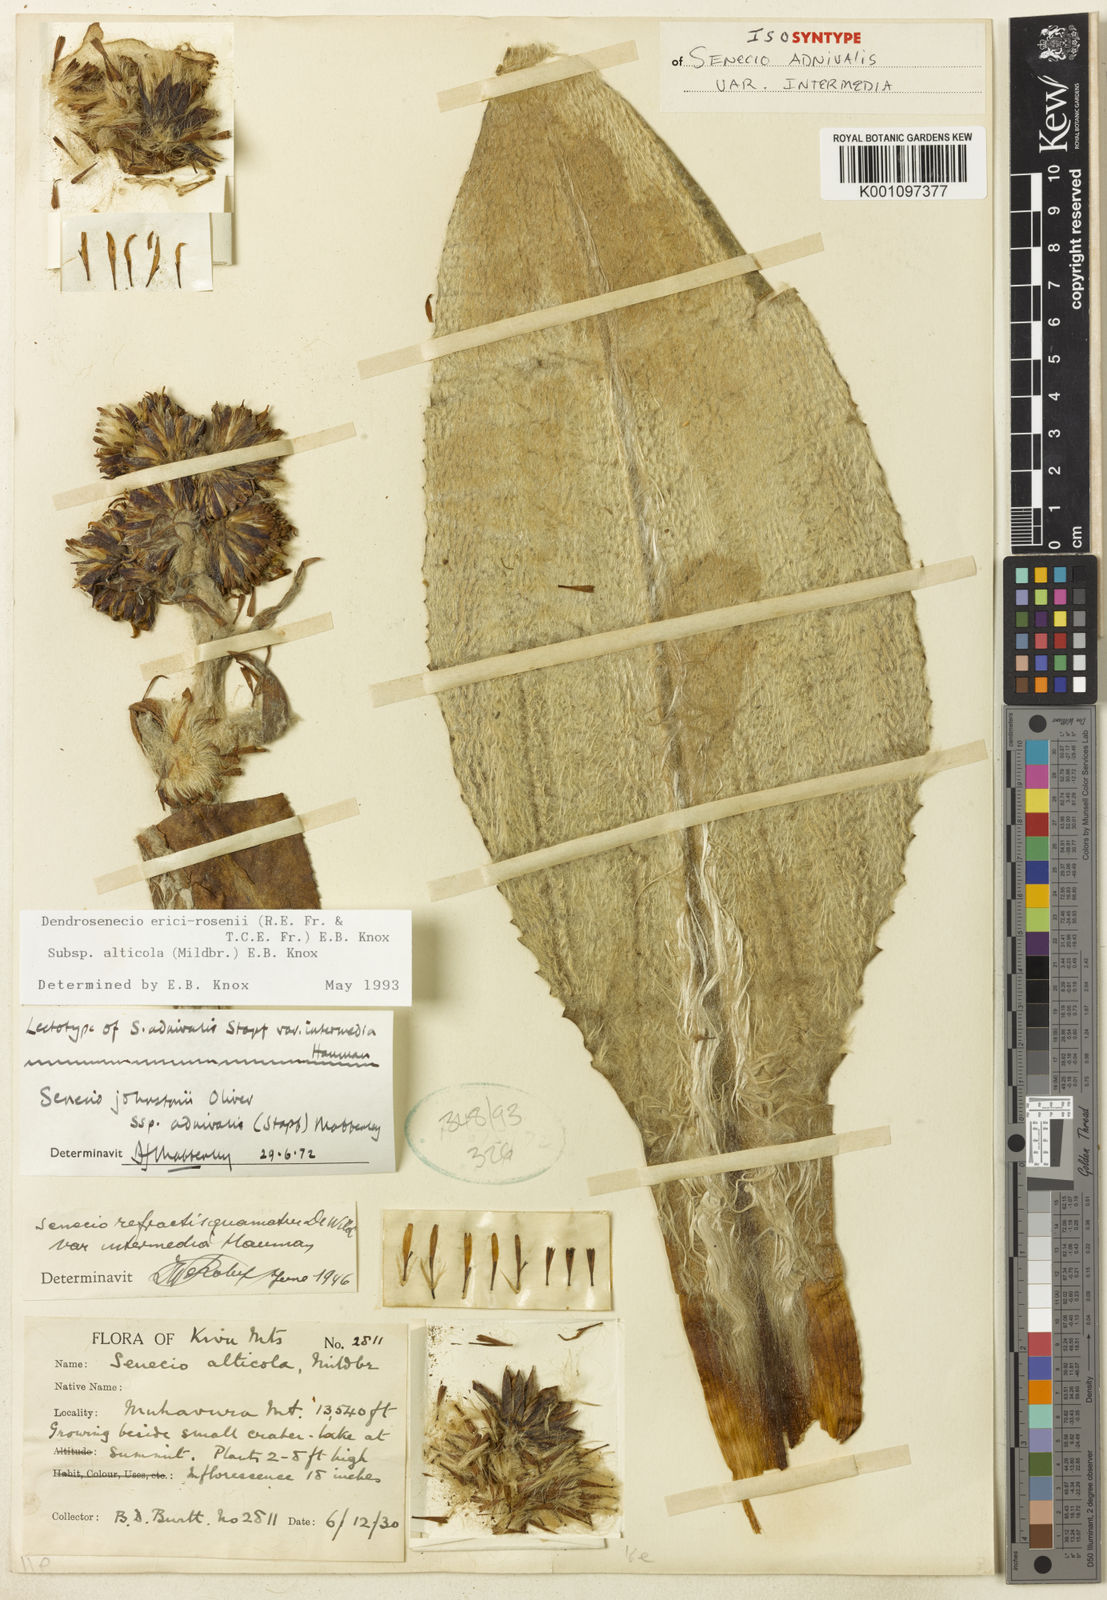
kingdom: Plantae
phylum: Tracheophyta
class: Magnoliopsida
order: Asterales
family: Asteraceae
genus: Dendrosenecio
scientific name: Dendrosenecio erici-rosenii
